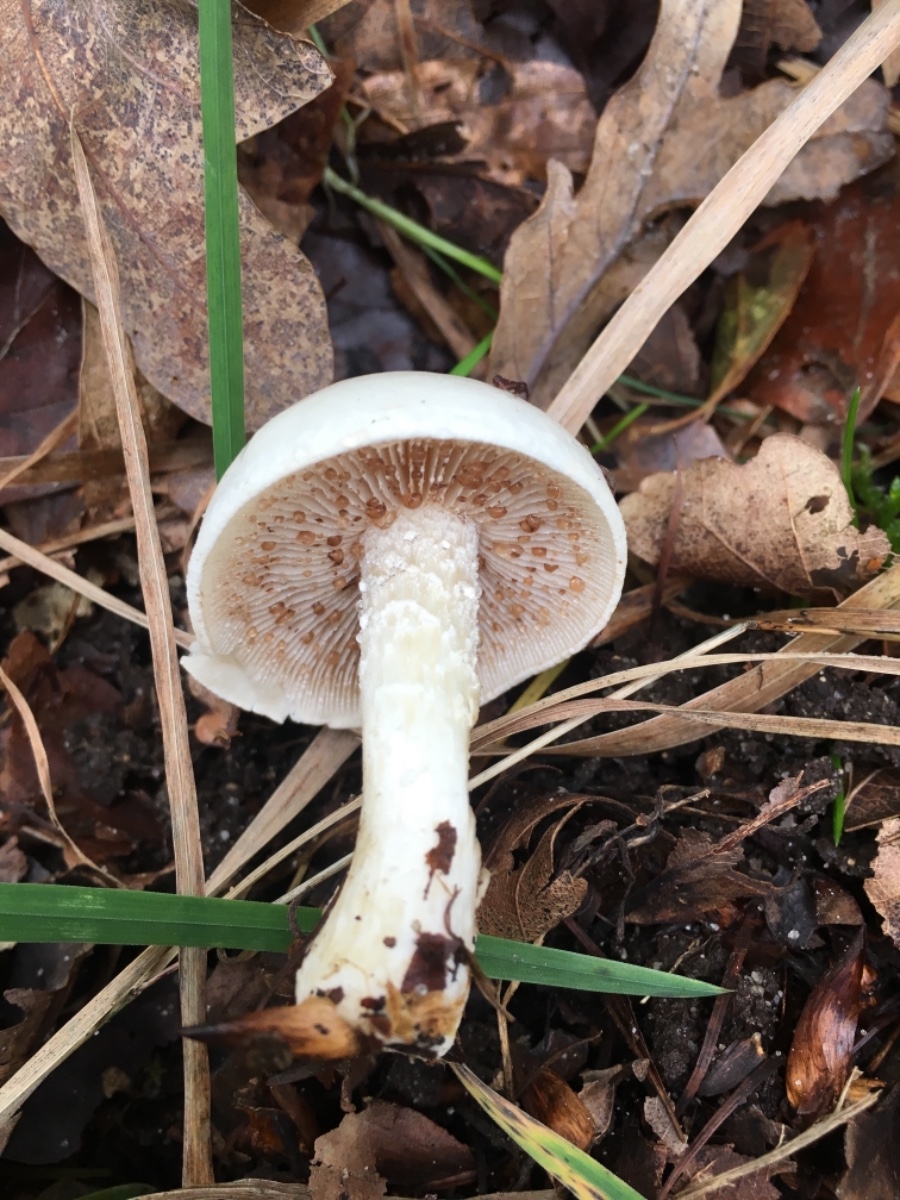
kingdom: Fungi
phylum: Basidiomycota
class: Agaricomycetes
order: Agaricales
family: Hymenogastraceae
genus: Hebeloma
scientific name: Hebeloma
